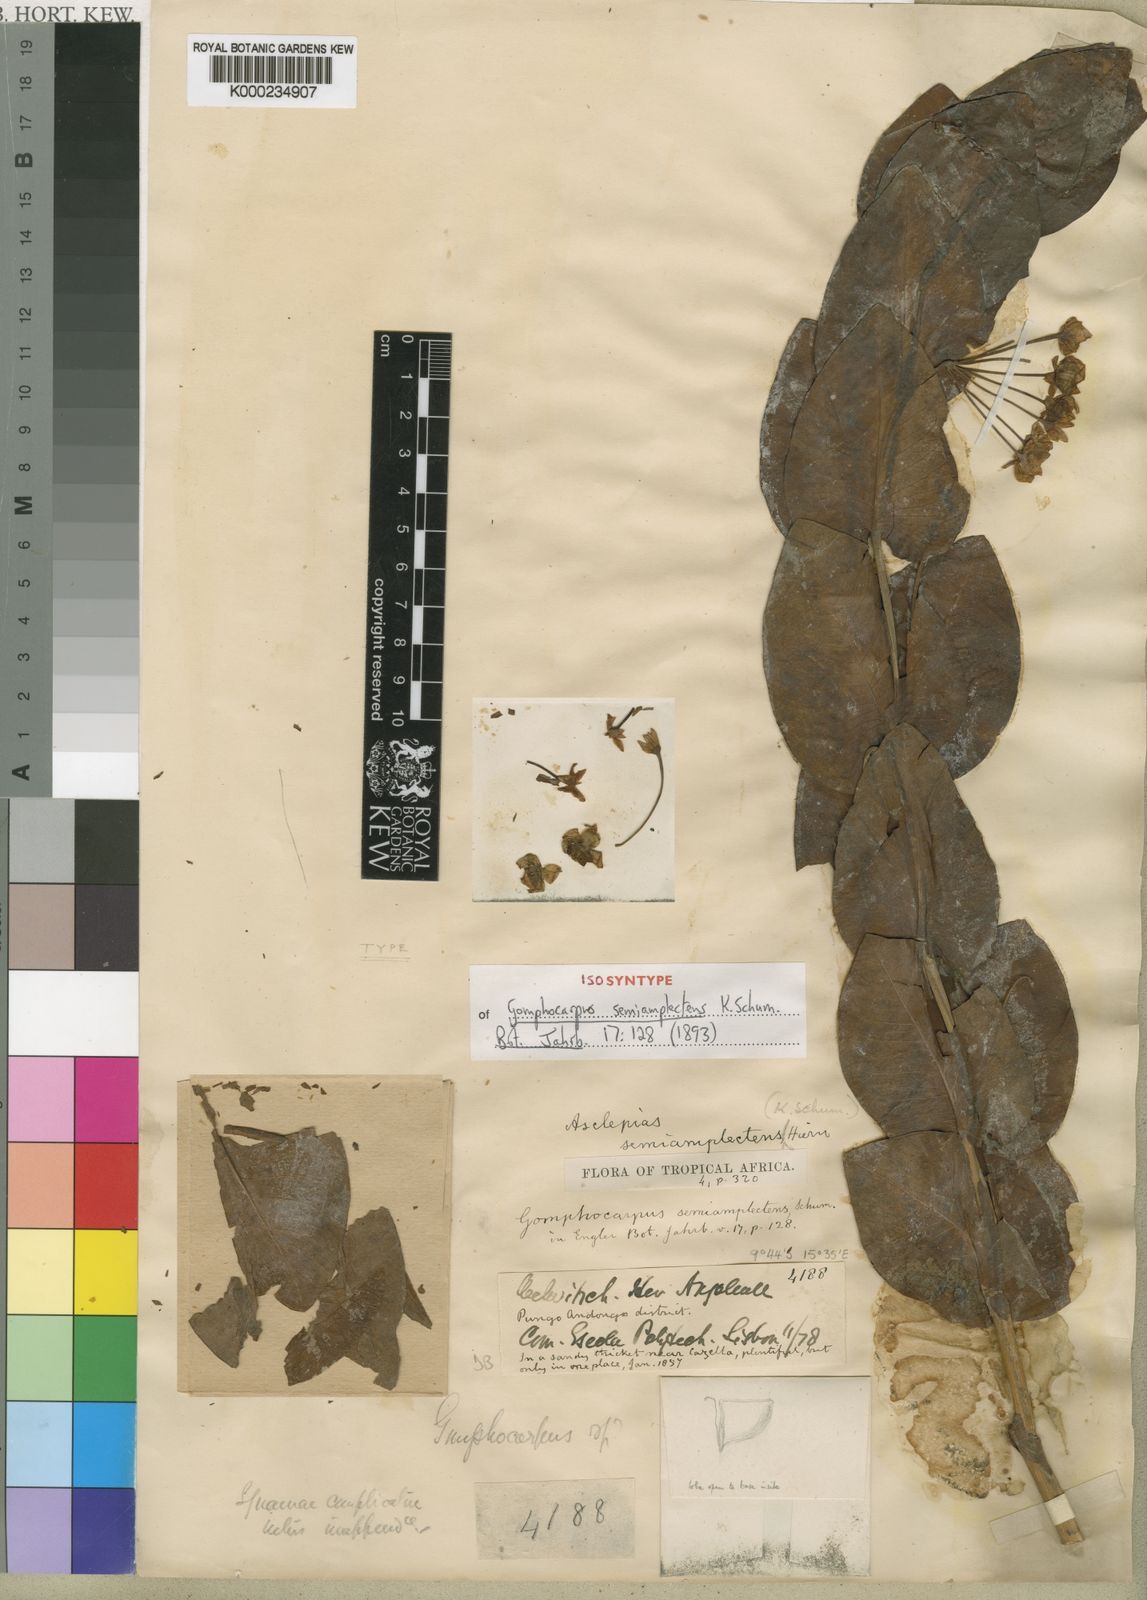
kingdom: Plantae
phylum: Tracheophyta
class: Magnoliopsida
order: Gentianales
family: Apocynaceae
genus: Gomphocarpus
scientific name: Gomphocarpus semiamplectens
